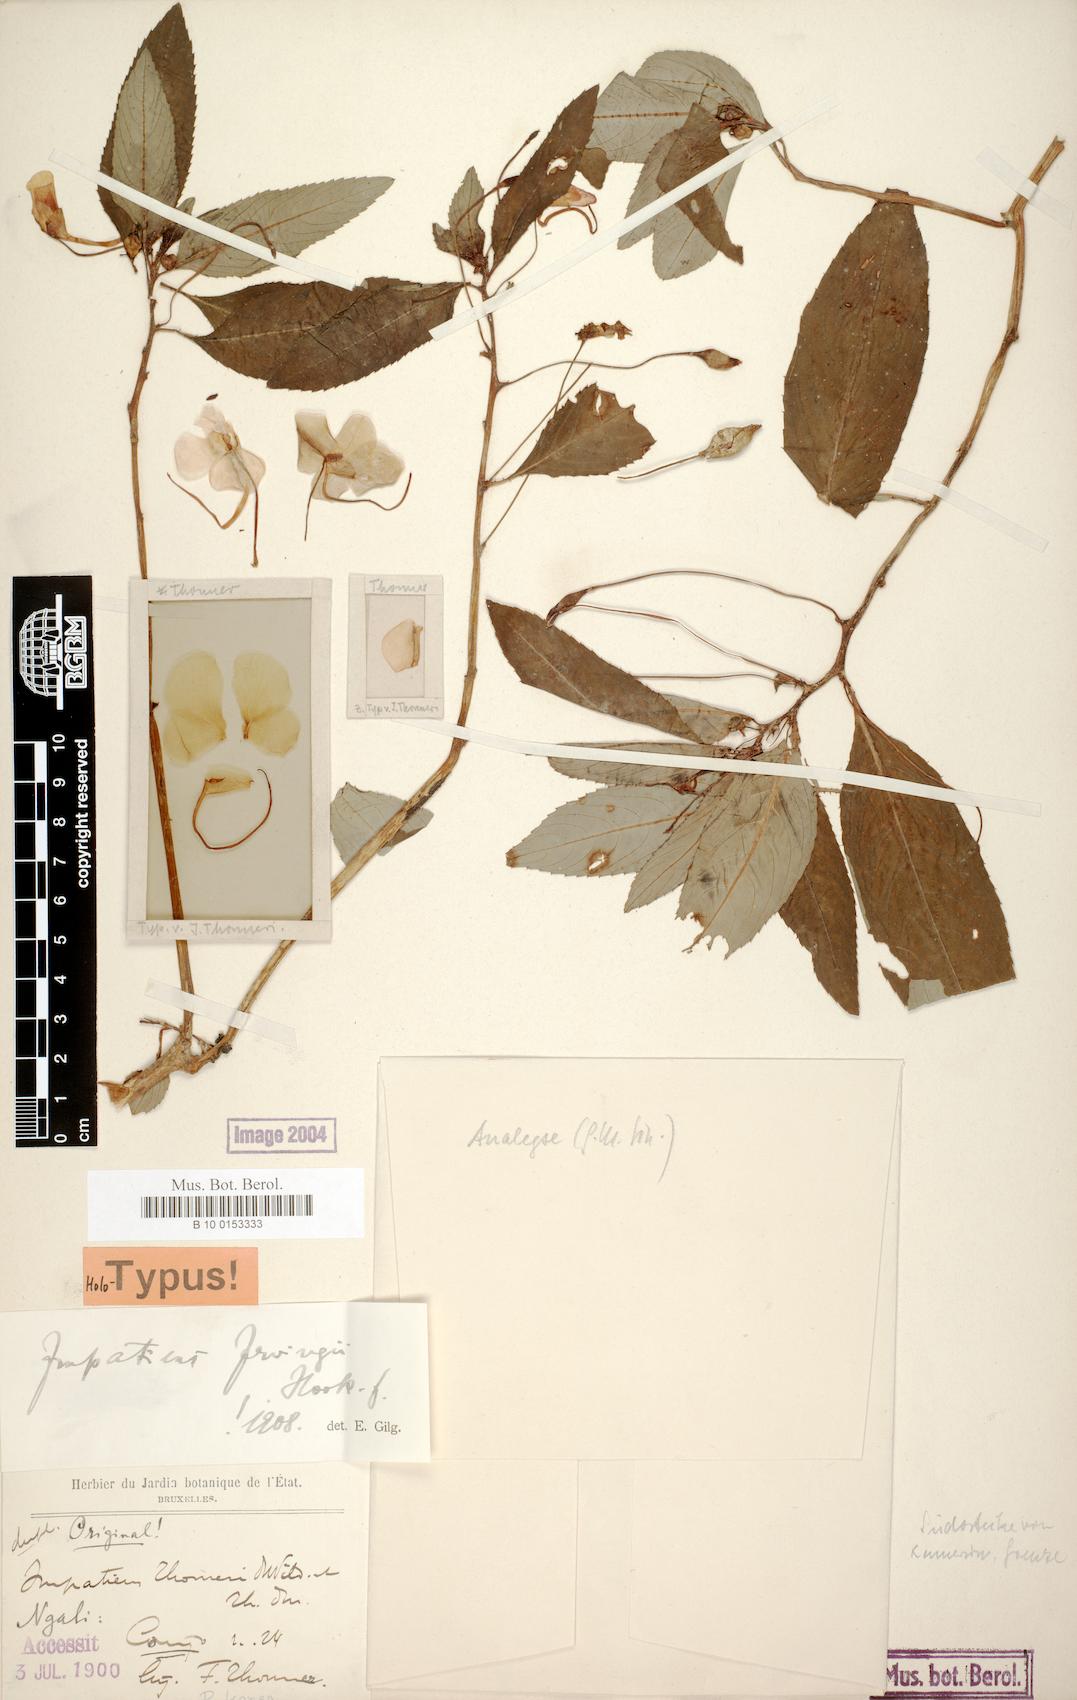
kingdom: Plantae
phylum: Tracheophyta
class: Magnoliopsida
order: Ericales
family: Balsaminaceae
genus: Impatiens
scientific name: Impatiens irvingii
